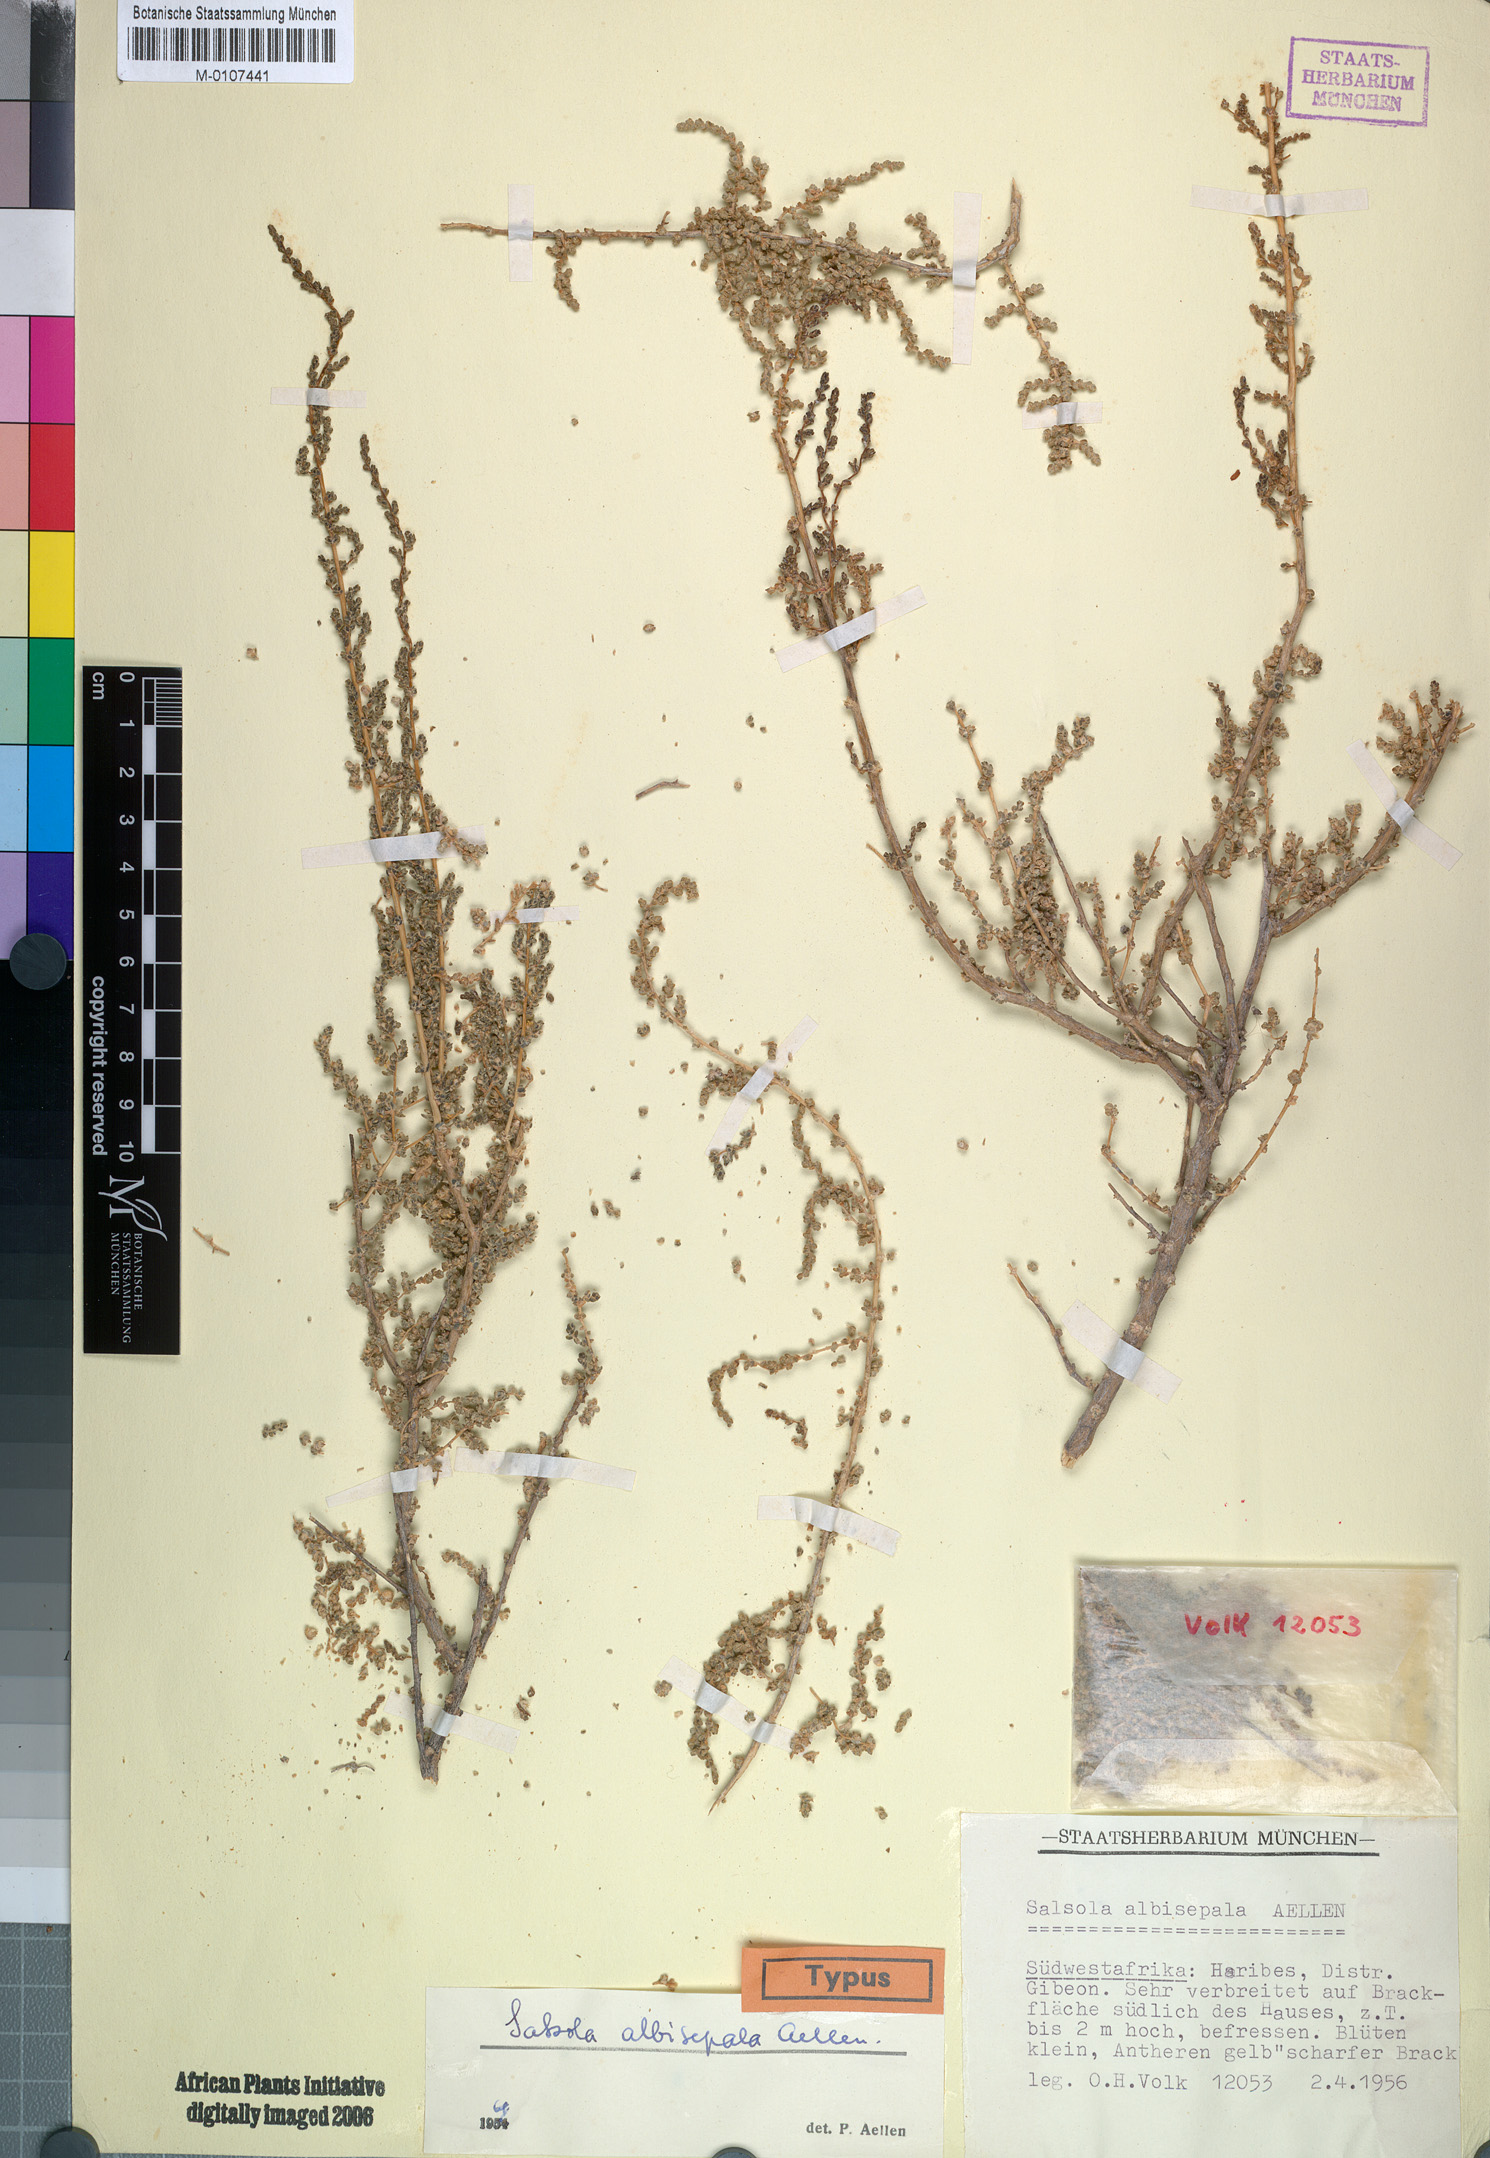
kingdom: Plantae
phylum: Tracheophyta
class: Magnoliopsida
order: Caryophyllales
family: Amaranthaceae
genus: Caroxylon
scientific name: Caroxylon albisepalum
